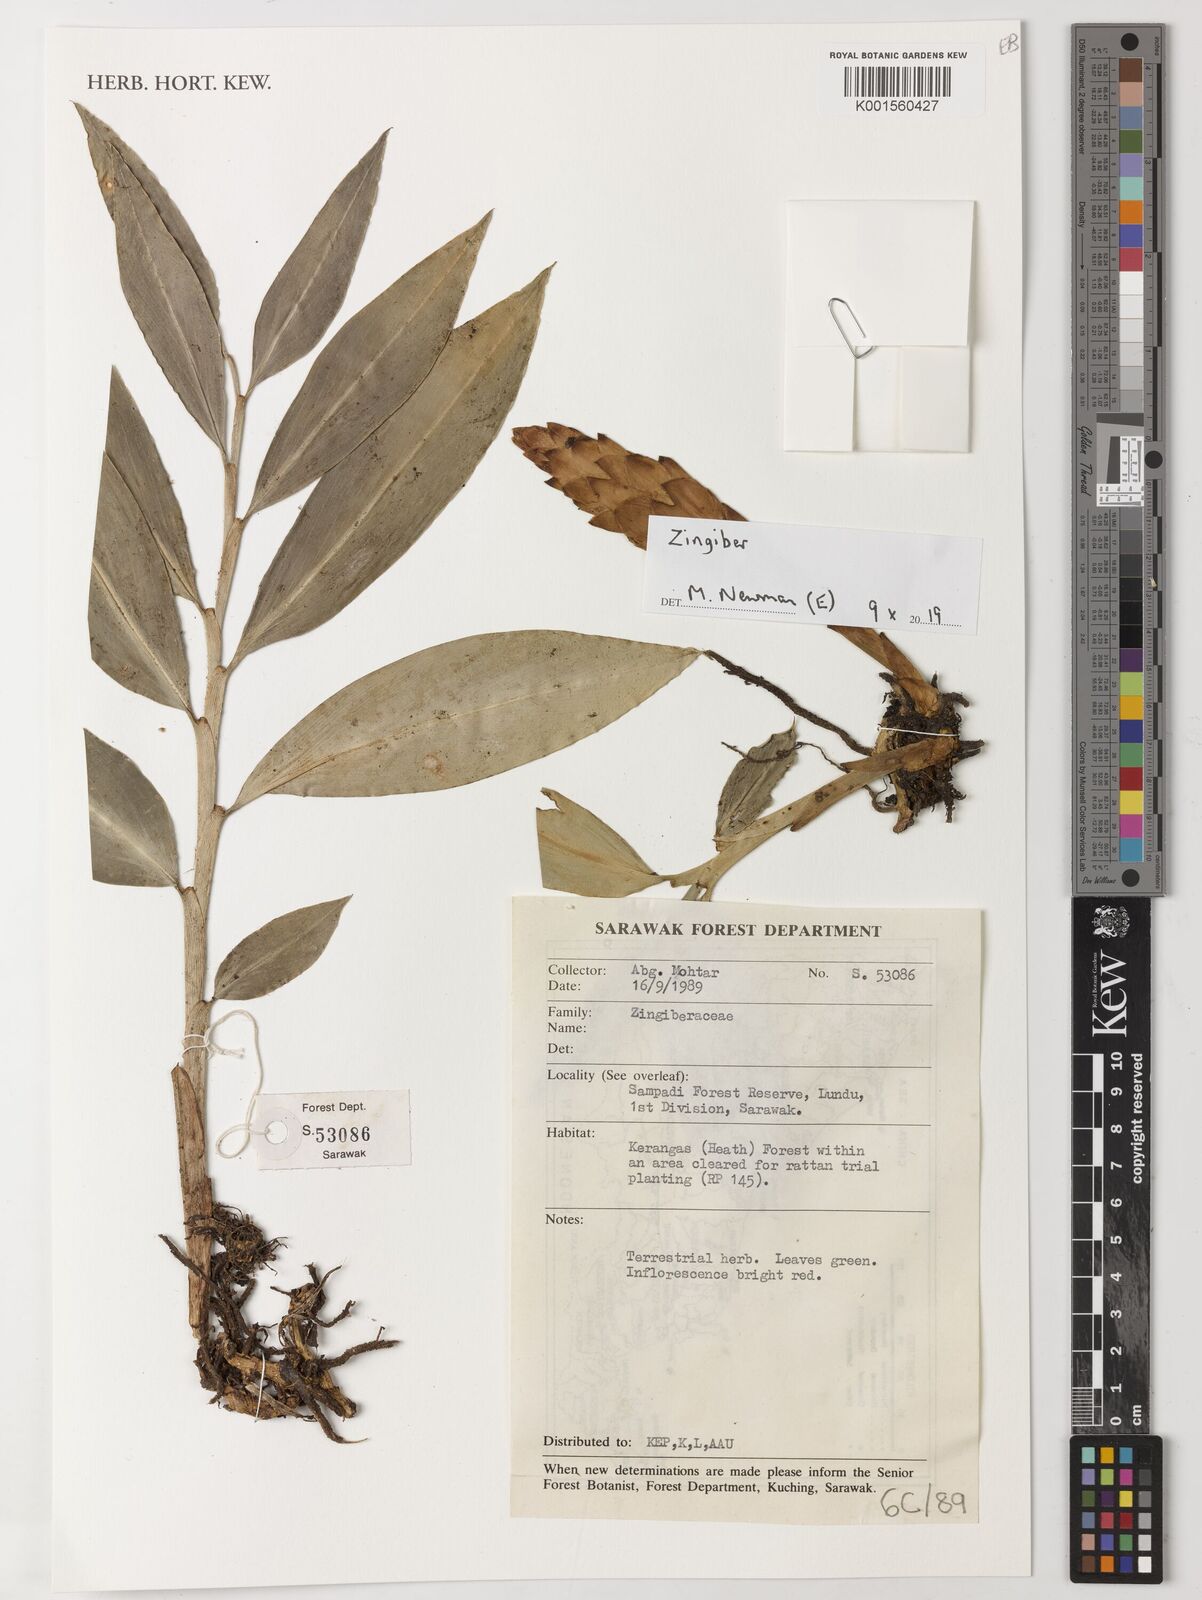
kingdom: Plantae
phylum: Tracheophyta
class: Liliopsida
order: Zingiberales
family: Zingiberaceae
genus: Zingiber
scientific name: Zingiber
